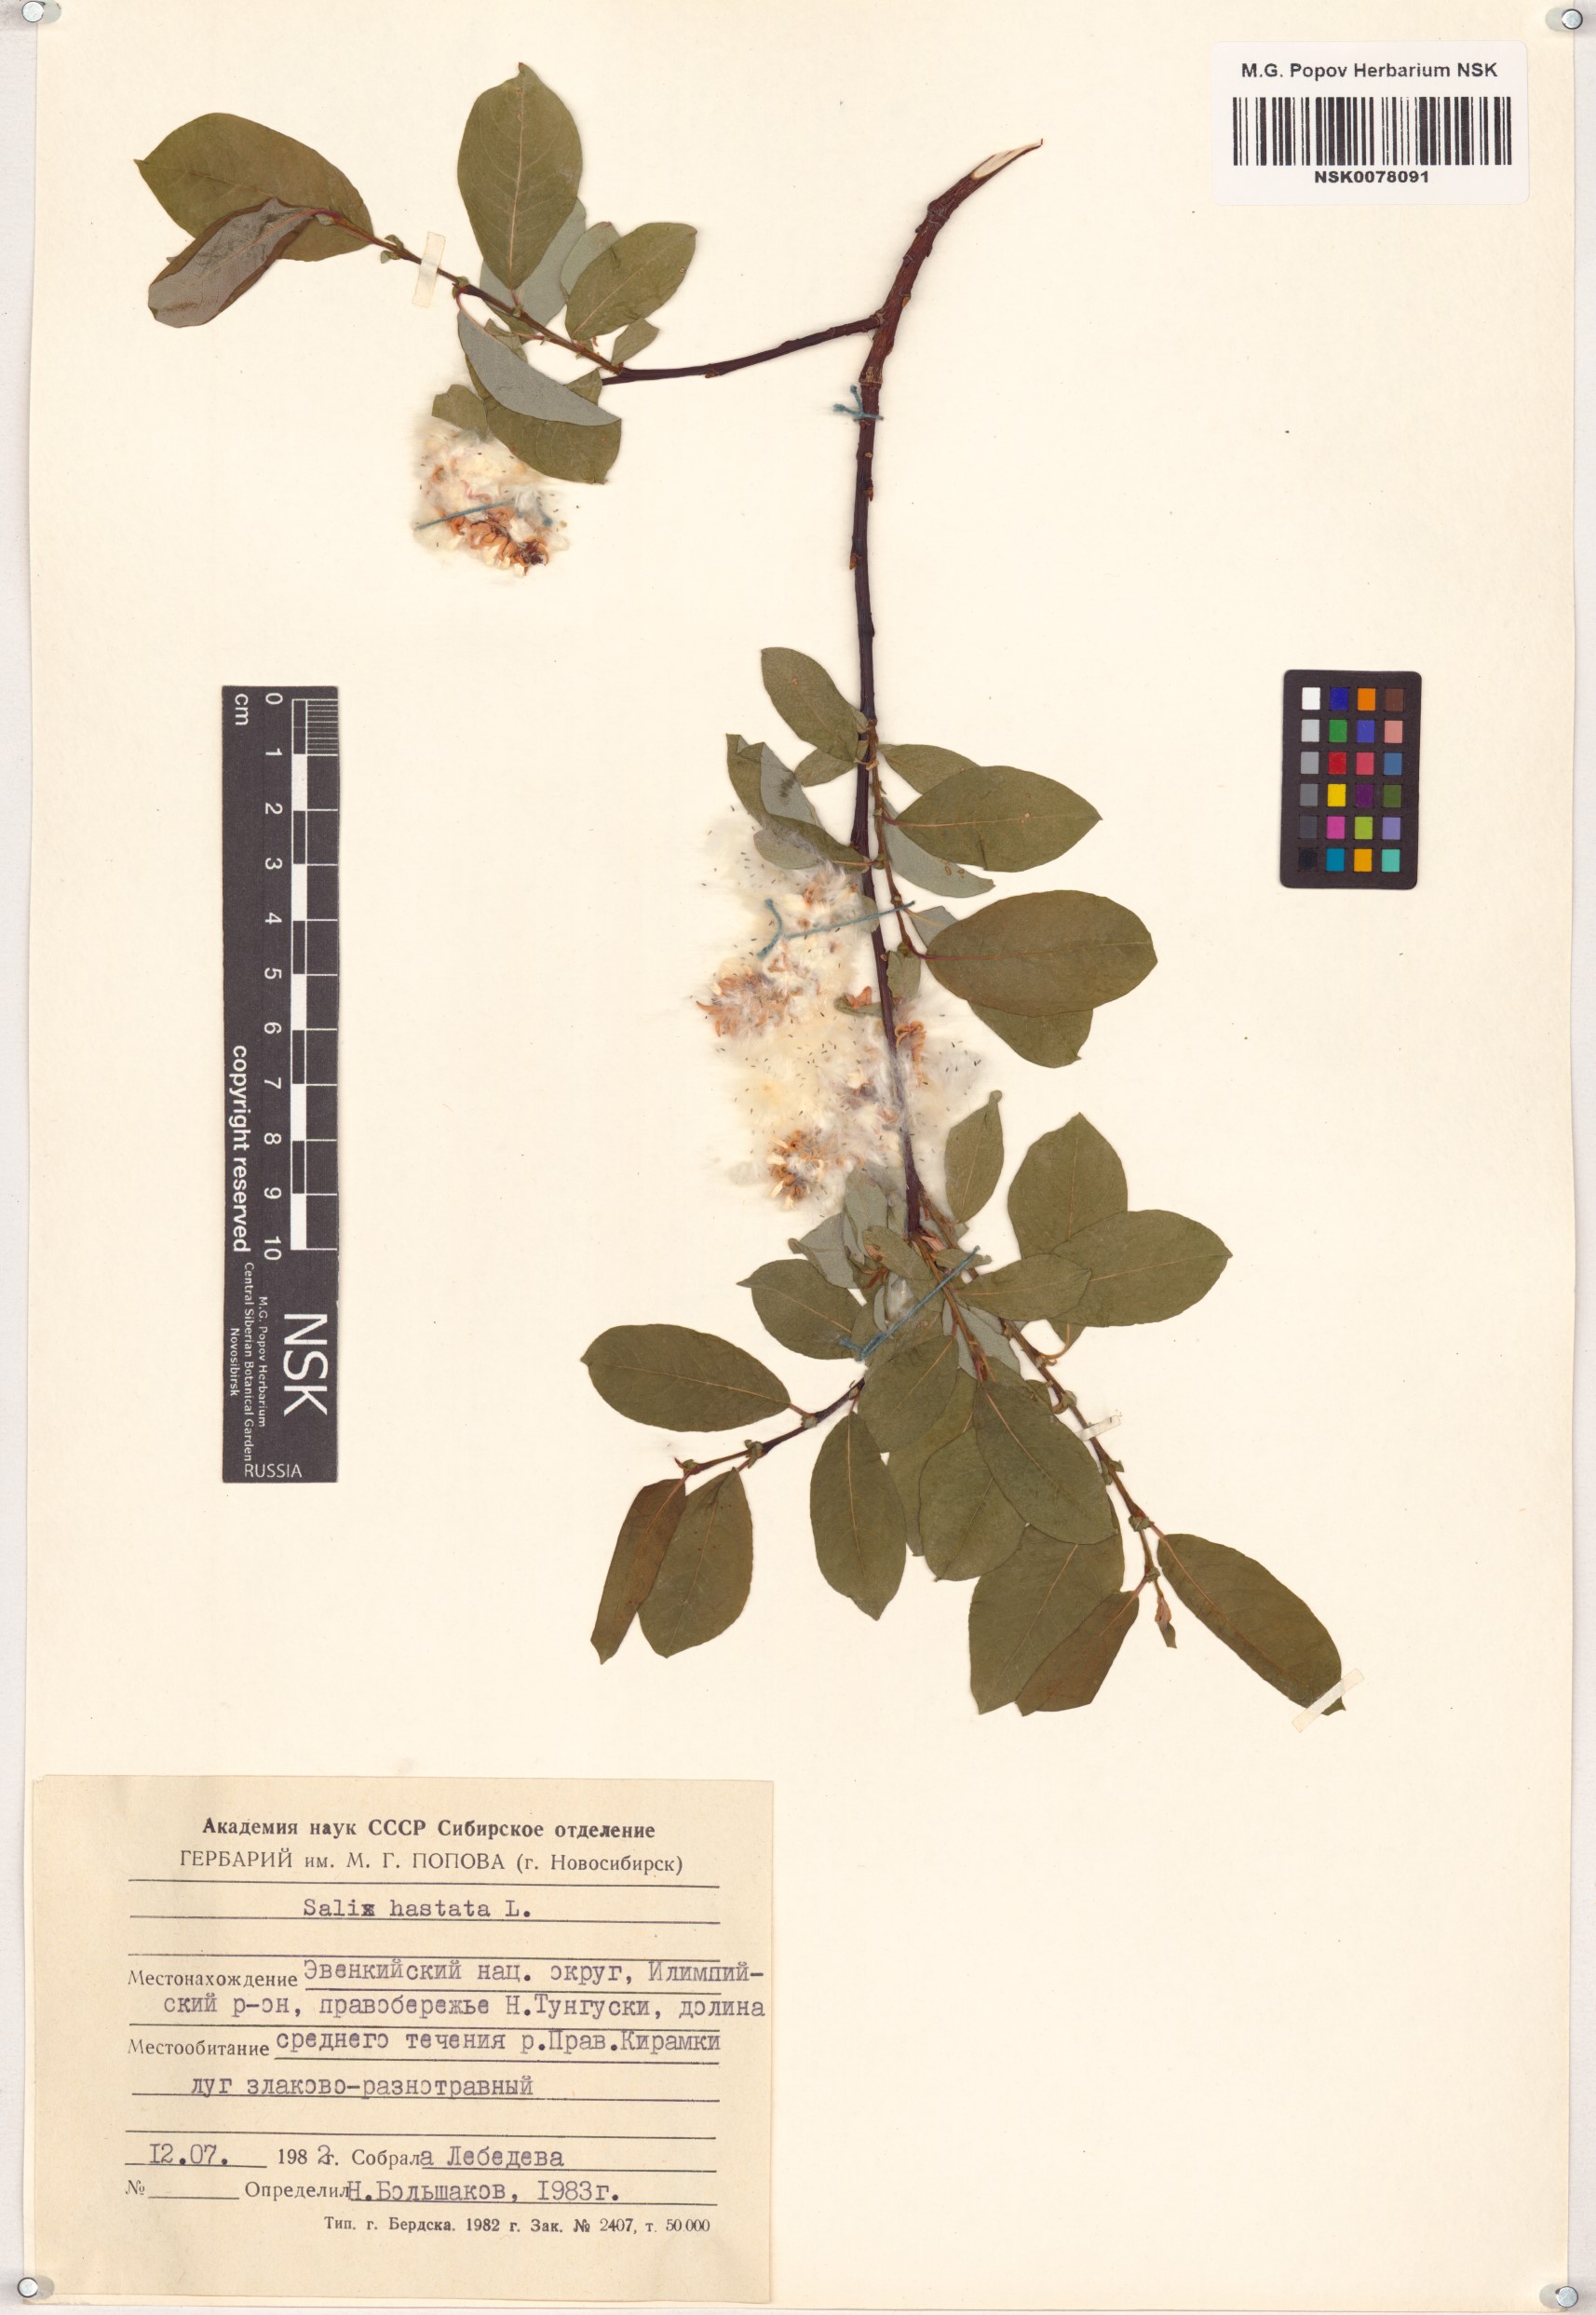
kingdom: Plantae
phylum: Tracheophyta
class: Magnoliopsida
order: Malpighiales
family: Salicaceae
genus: Salix
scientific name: Salix hastata
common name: Halberd willow
